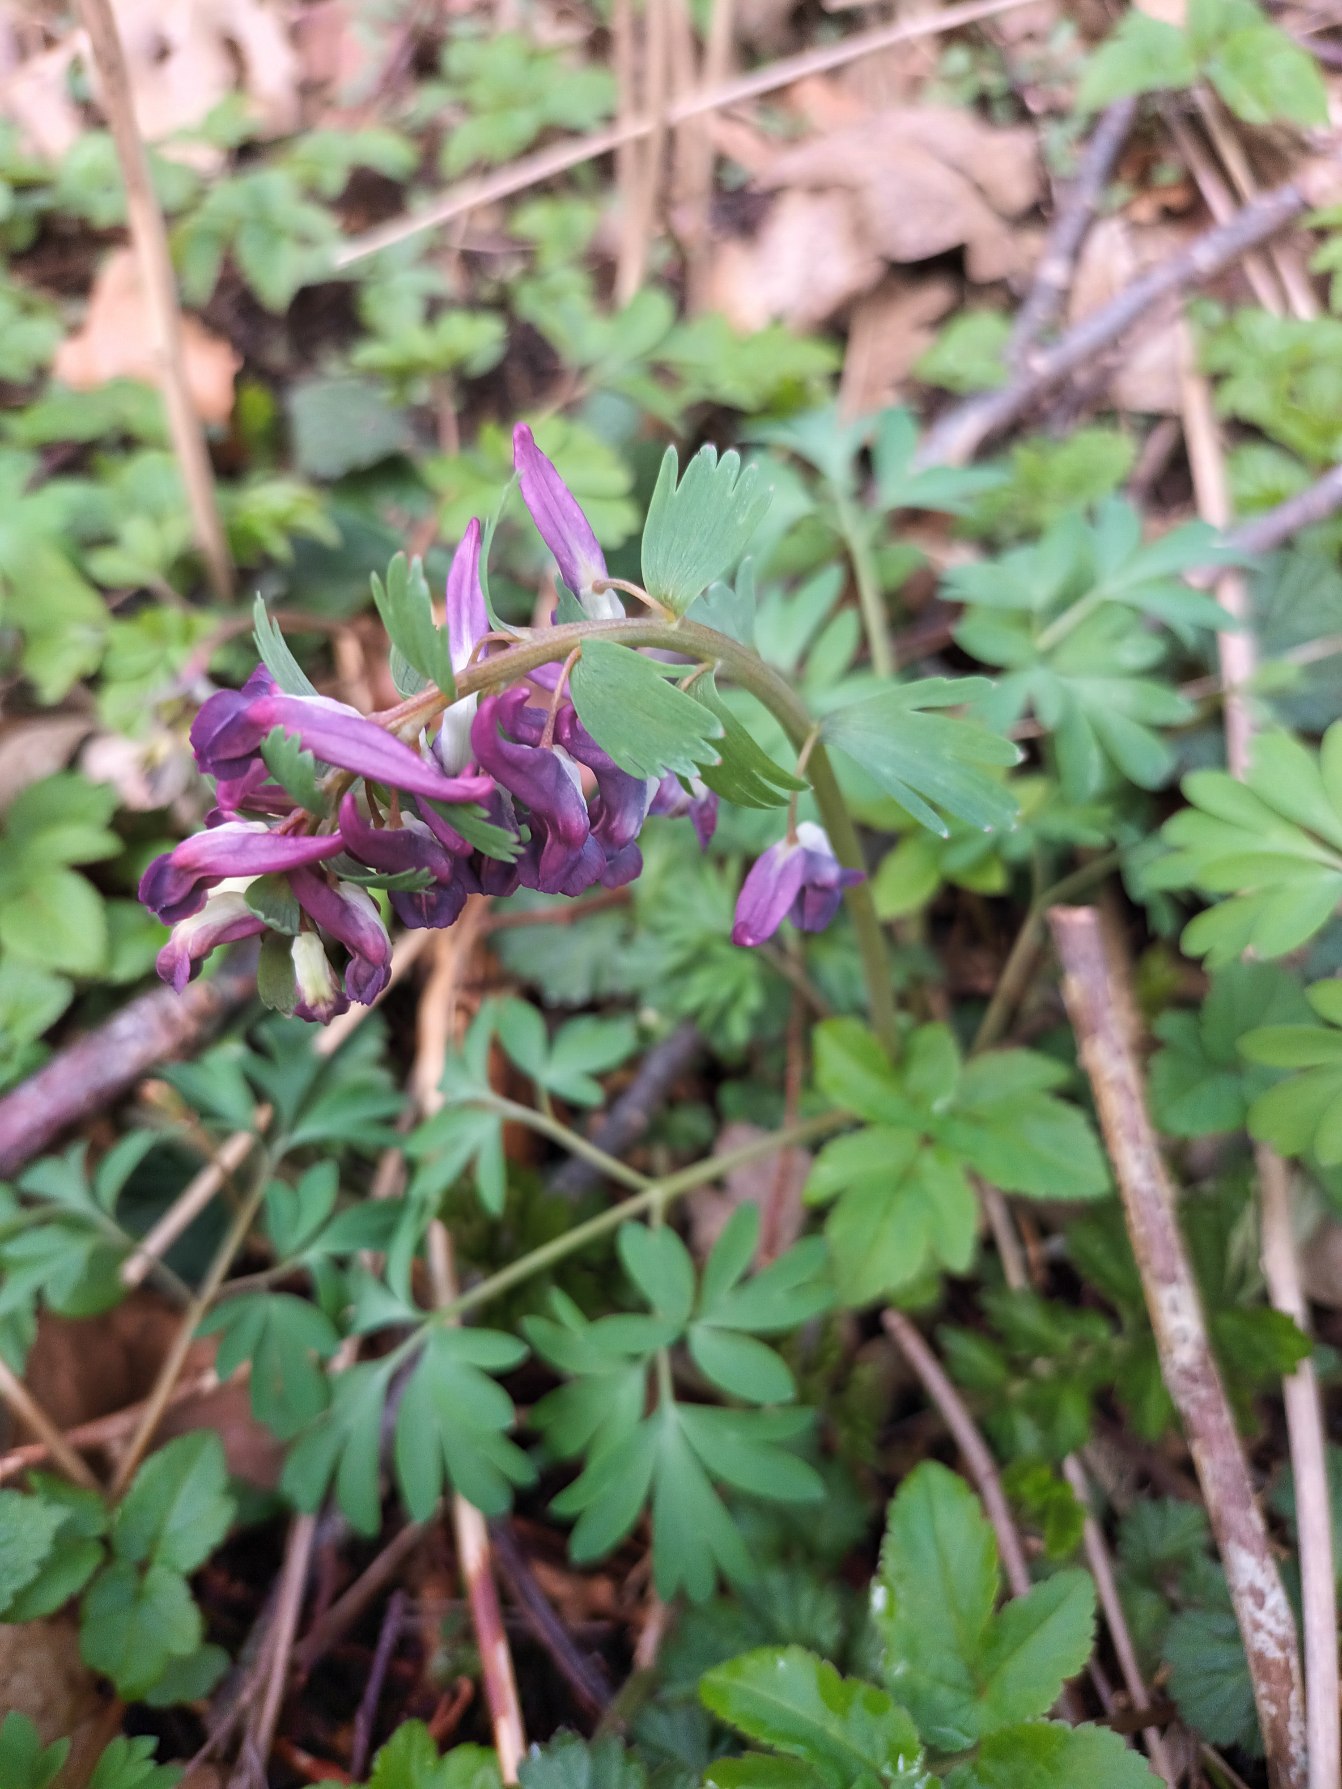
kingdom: Plantae
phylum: Tracheophyta
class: Magnoliopsida
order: Ranunculales
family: Papaveraceae
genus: Corydalis
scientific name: Corydalis solida
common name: Langstilket lærkespore
